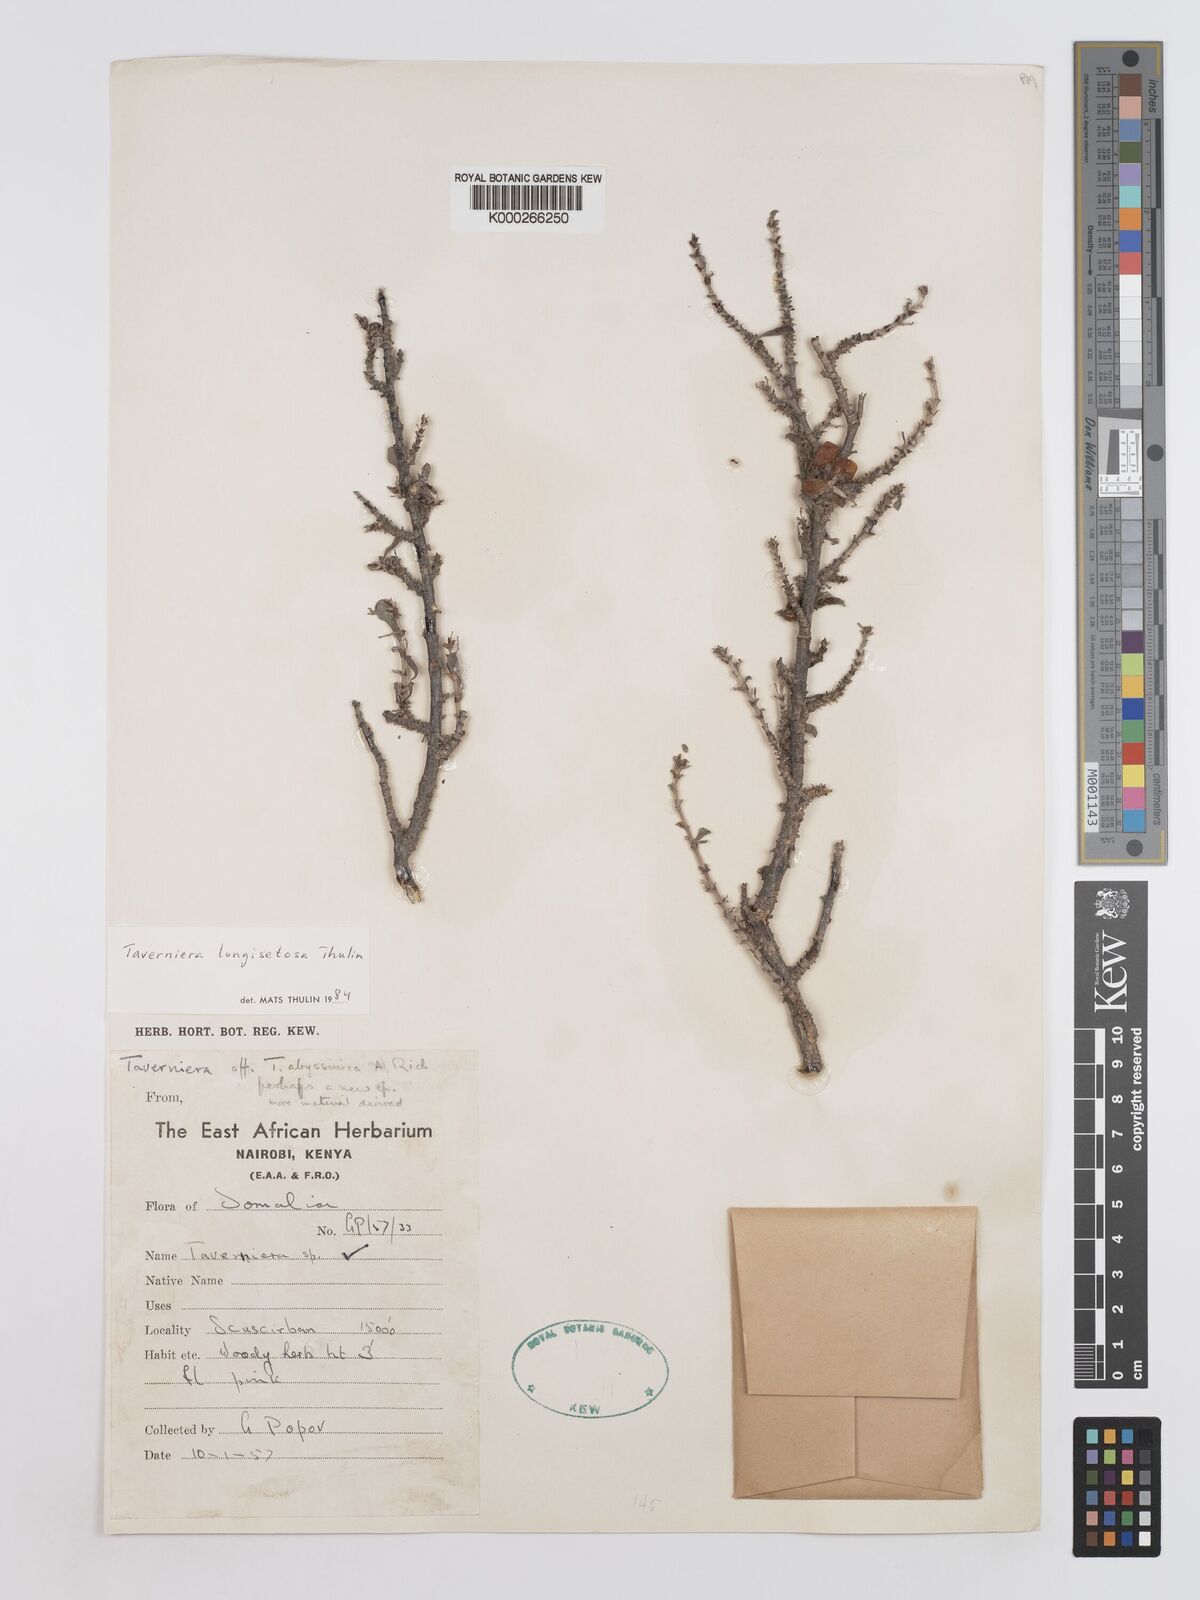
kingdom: Plantae
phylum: Tracheophyta
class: Magnoliopsida
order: Fabales
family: Fabaceae
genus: Taverniera
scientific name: Taverniera longisetosa
